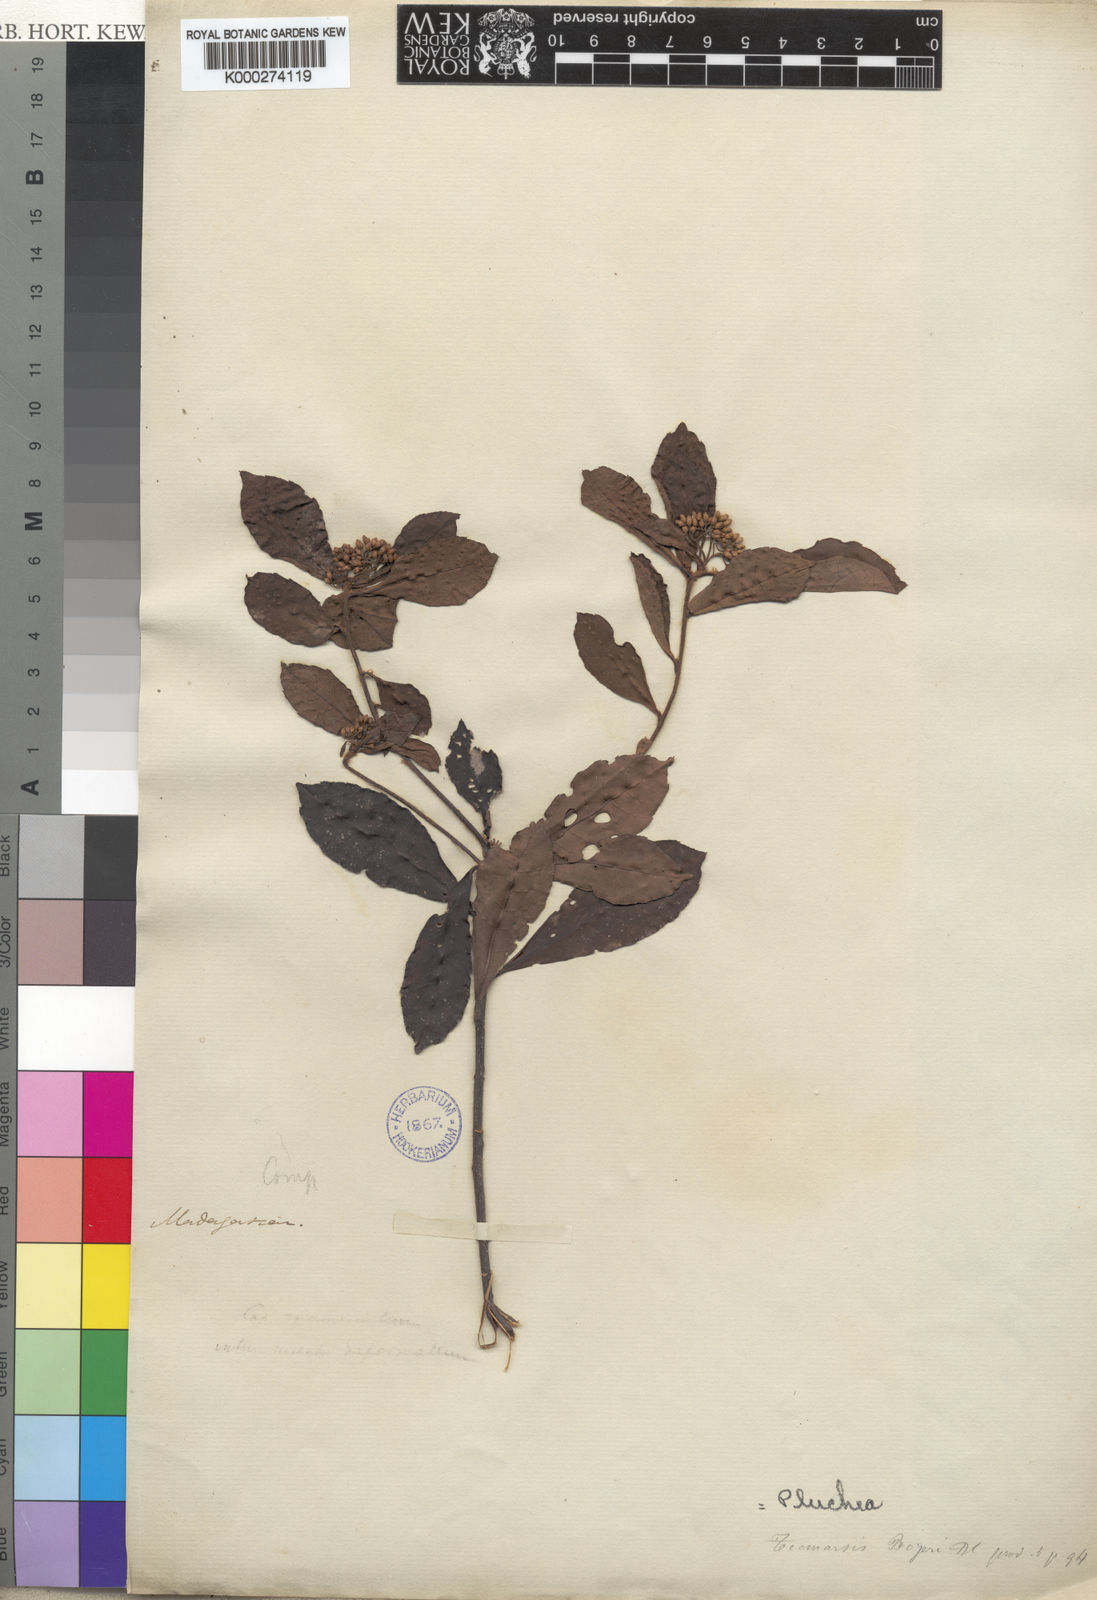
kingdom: Plantae
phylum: Tracheophyta
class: Magnoliopsida
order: Asterales
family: Asteraceae
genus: Pluchea
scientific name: Pluchea bojeri
